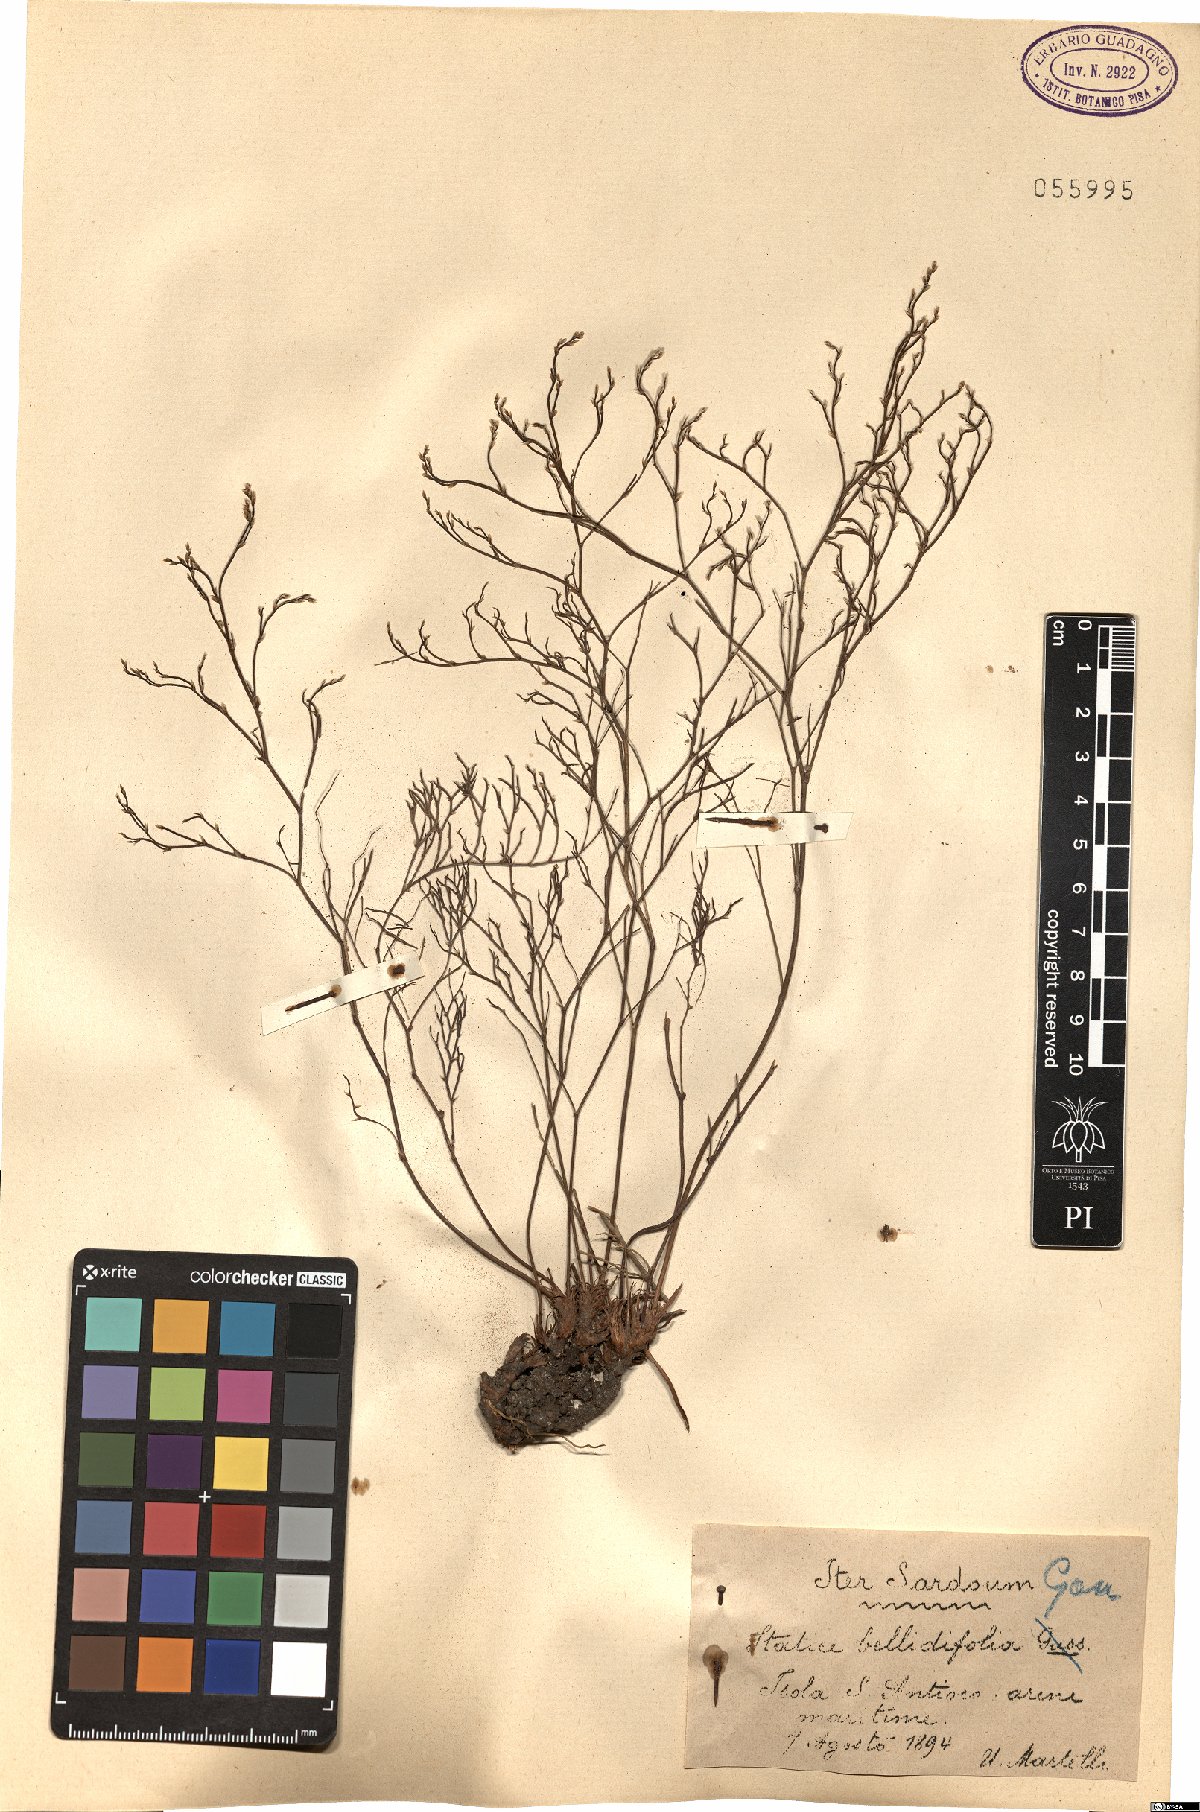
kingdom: Plantae
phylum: Tracheophyta
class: Magnoliopsida
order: Caryophyllales
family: Plumbaginaceae
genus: Limonium
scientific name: Limonium bellidifolium
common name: Matted sea-lavender
